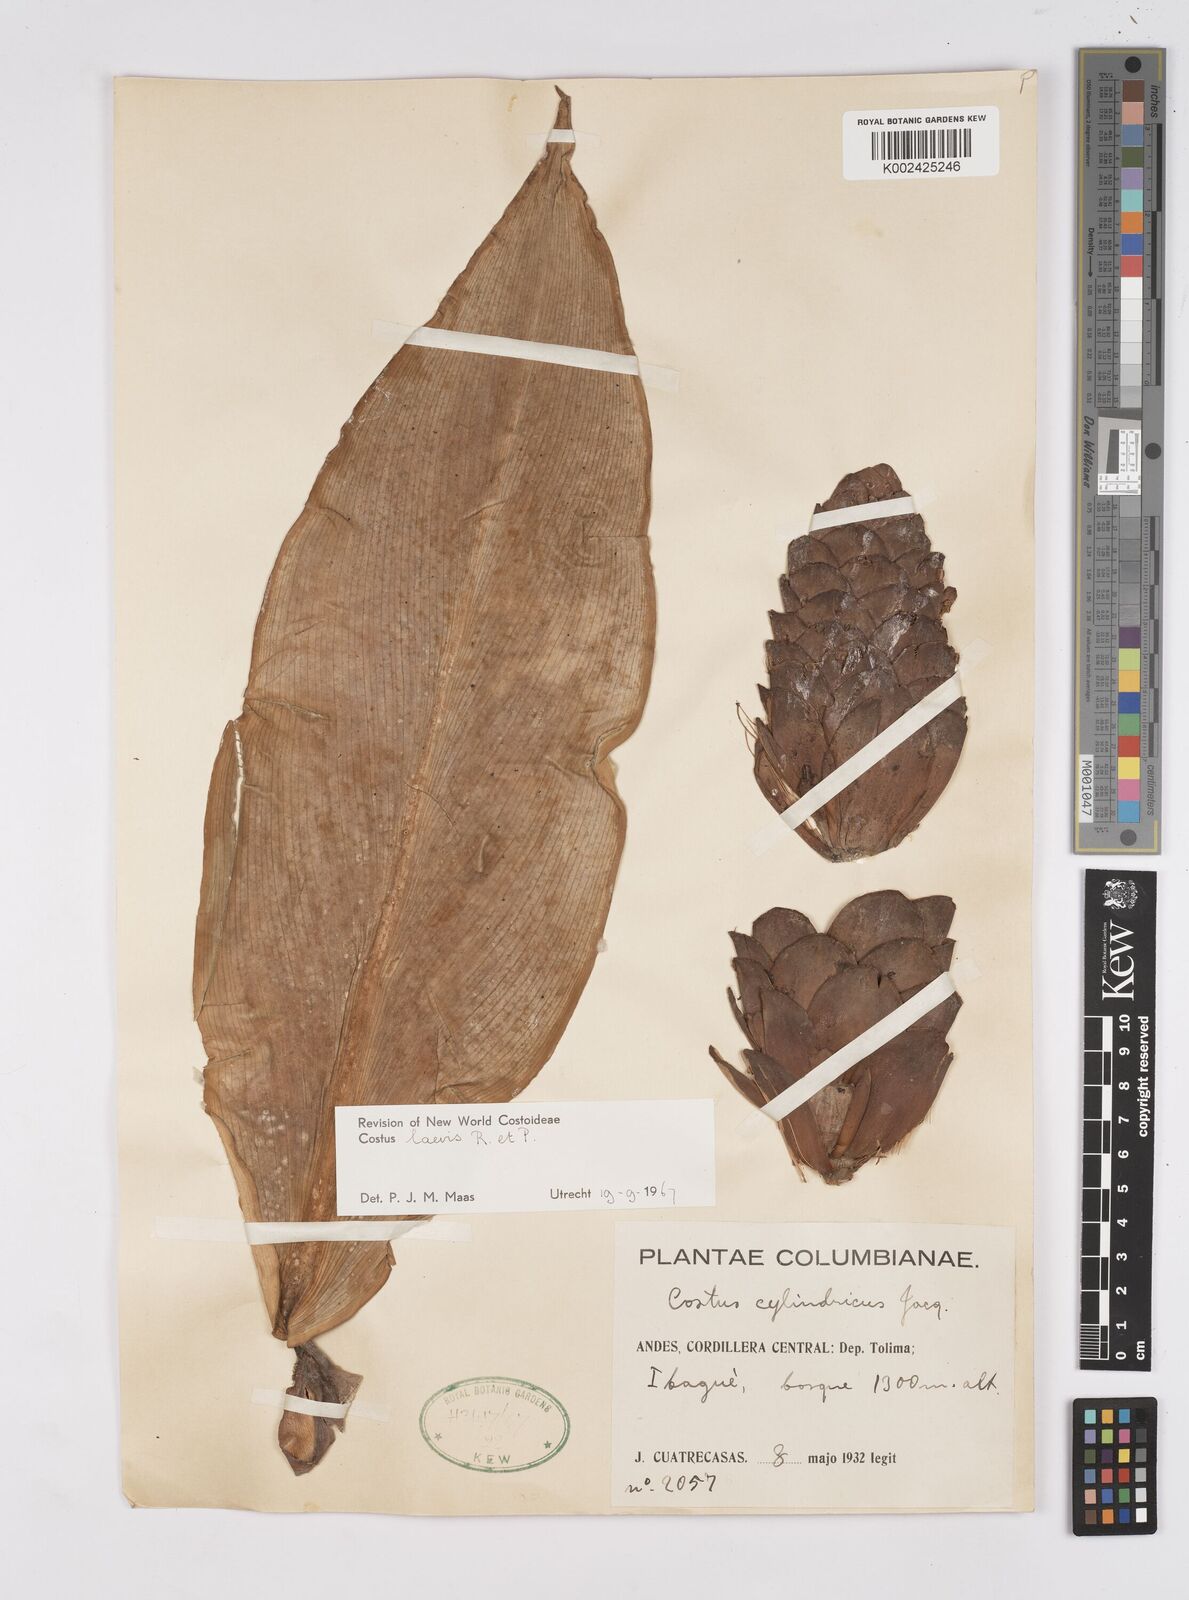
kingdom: Plantae
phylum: Tracheophyta
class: Liliopsida
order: Zingiberales
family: Costaceae
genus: Costus
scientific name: Costus laevis
